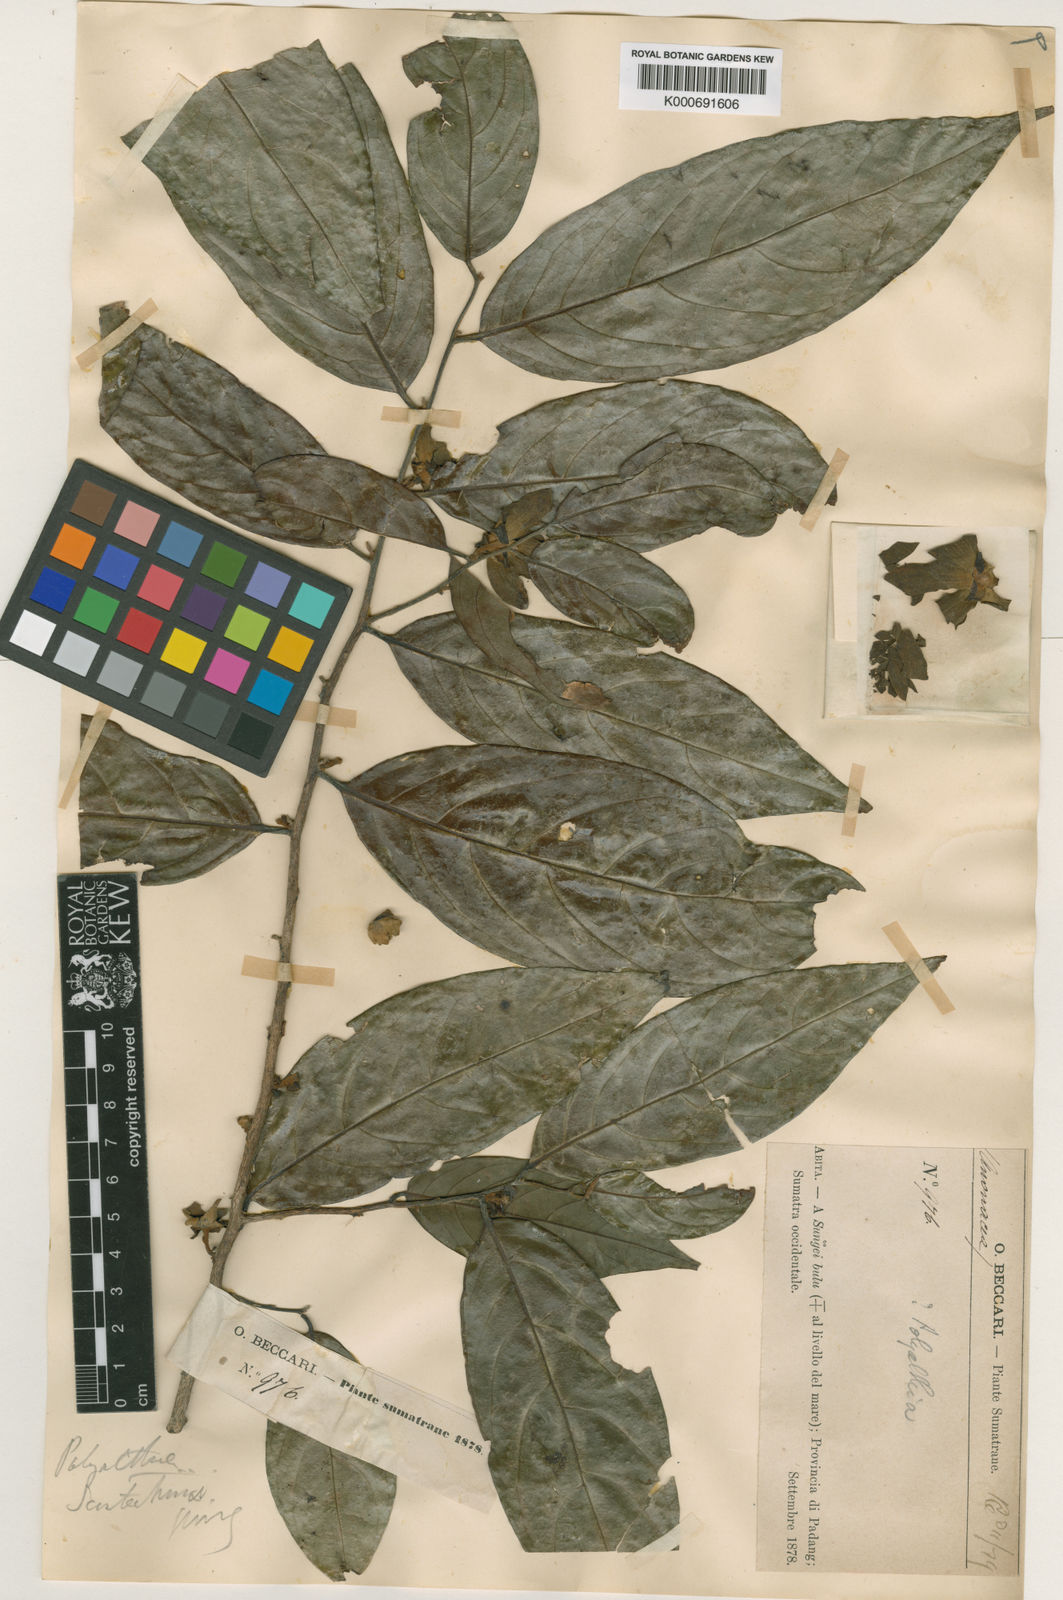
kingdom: Plantae
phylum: Tracheophyta
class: Magnoliopsida
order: Magnoliales
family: Annonaceae
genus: Hubera
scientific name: Hubera rumphii
